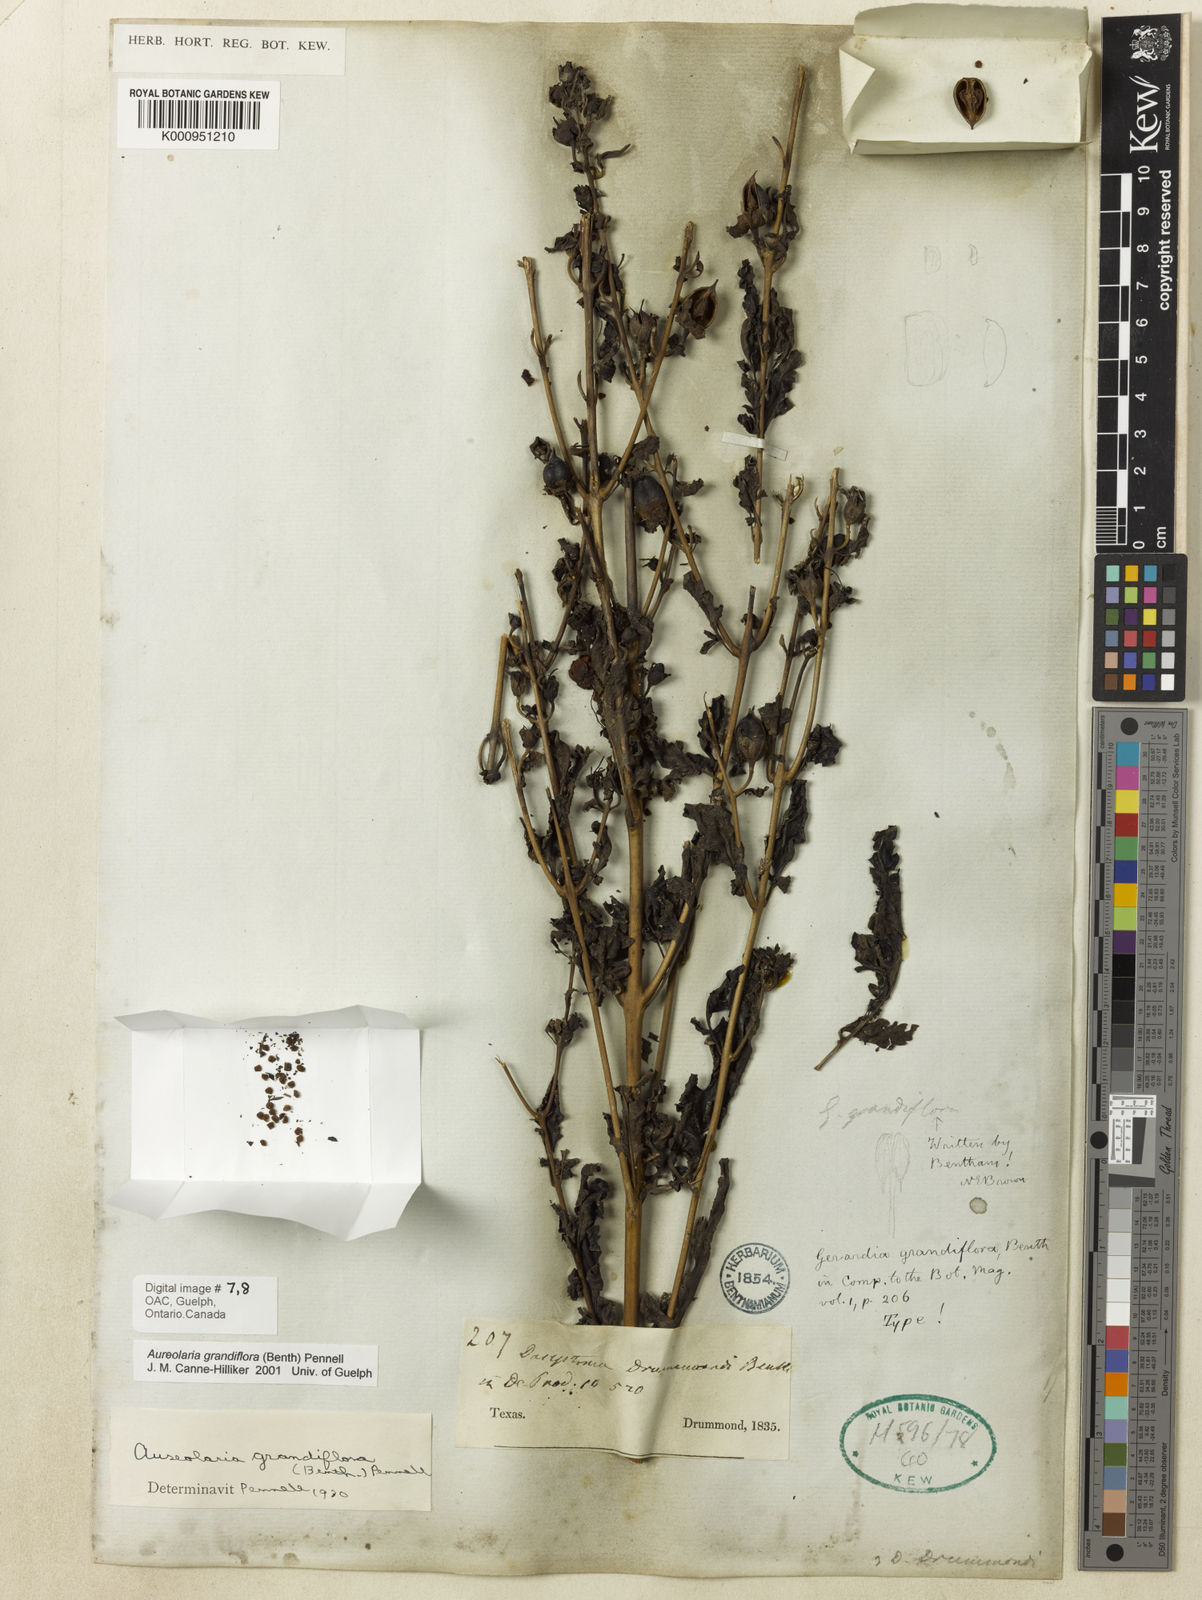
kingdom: Plantae
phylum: Tracheophyta
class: Magnoliopsida
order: Lamiales
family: Orobanchaceae
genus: Aureolaria
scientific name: Aureolaria grandiflora
